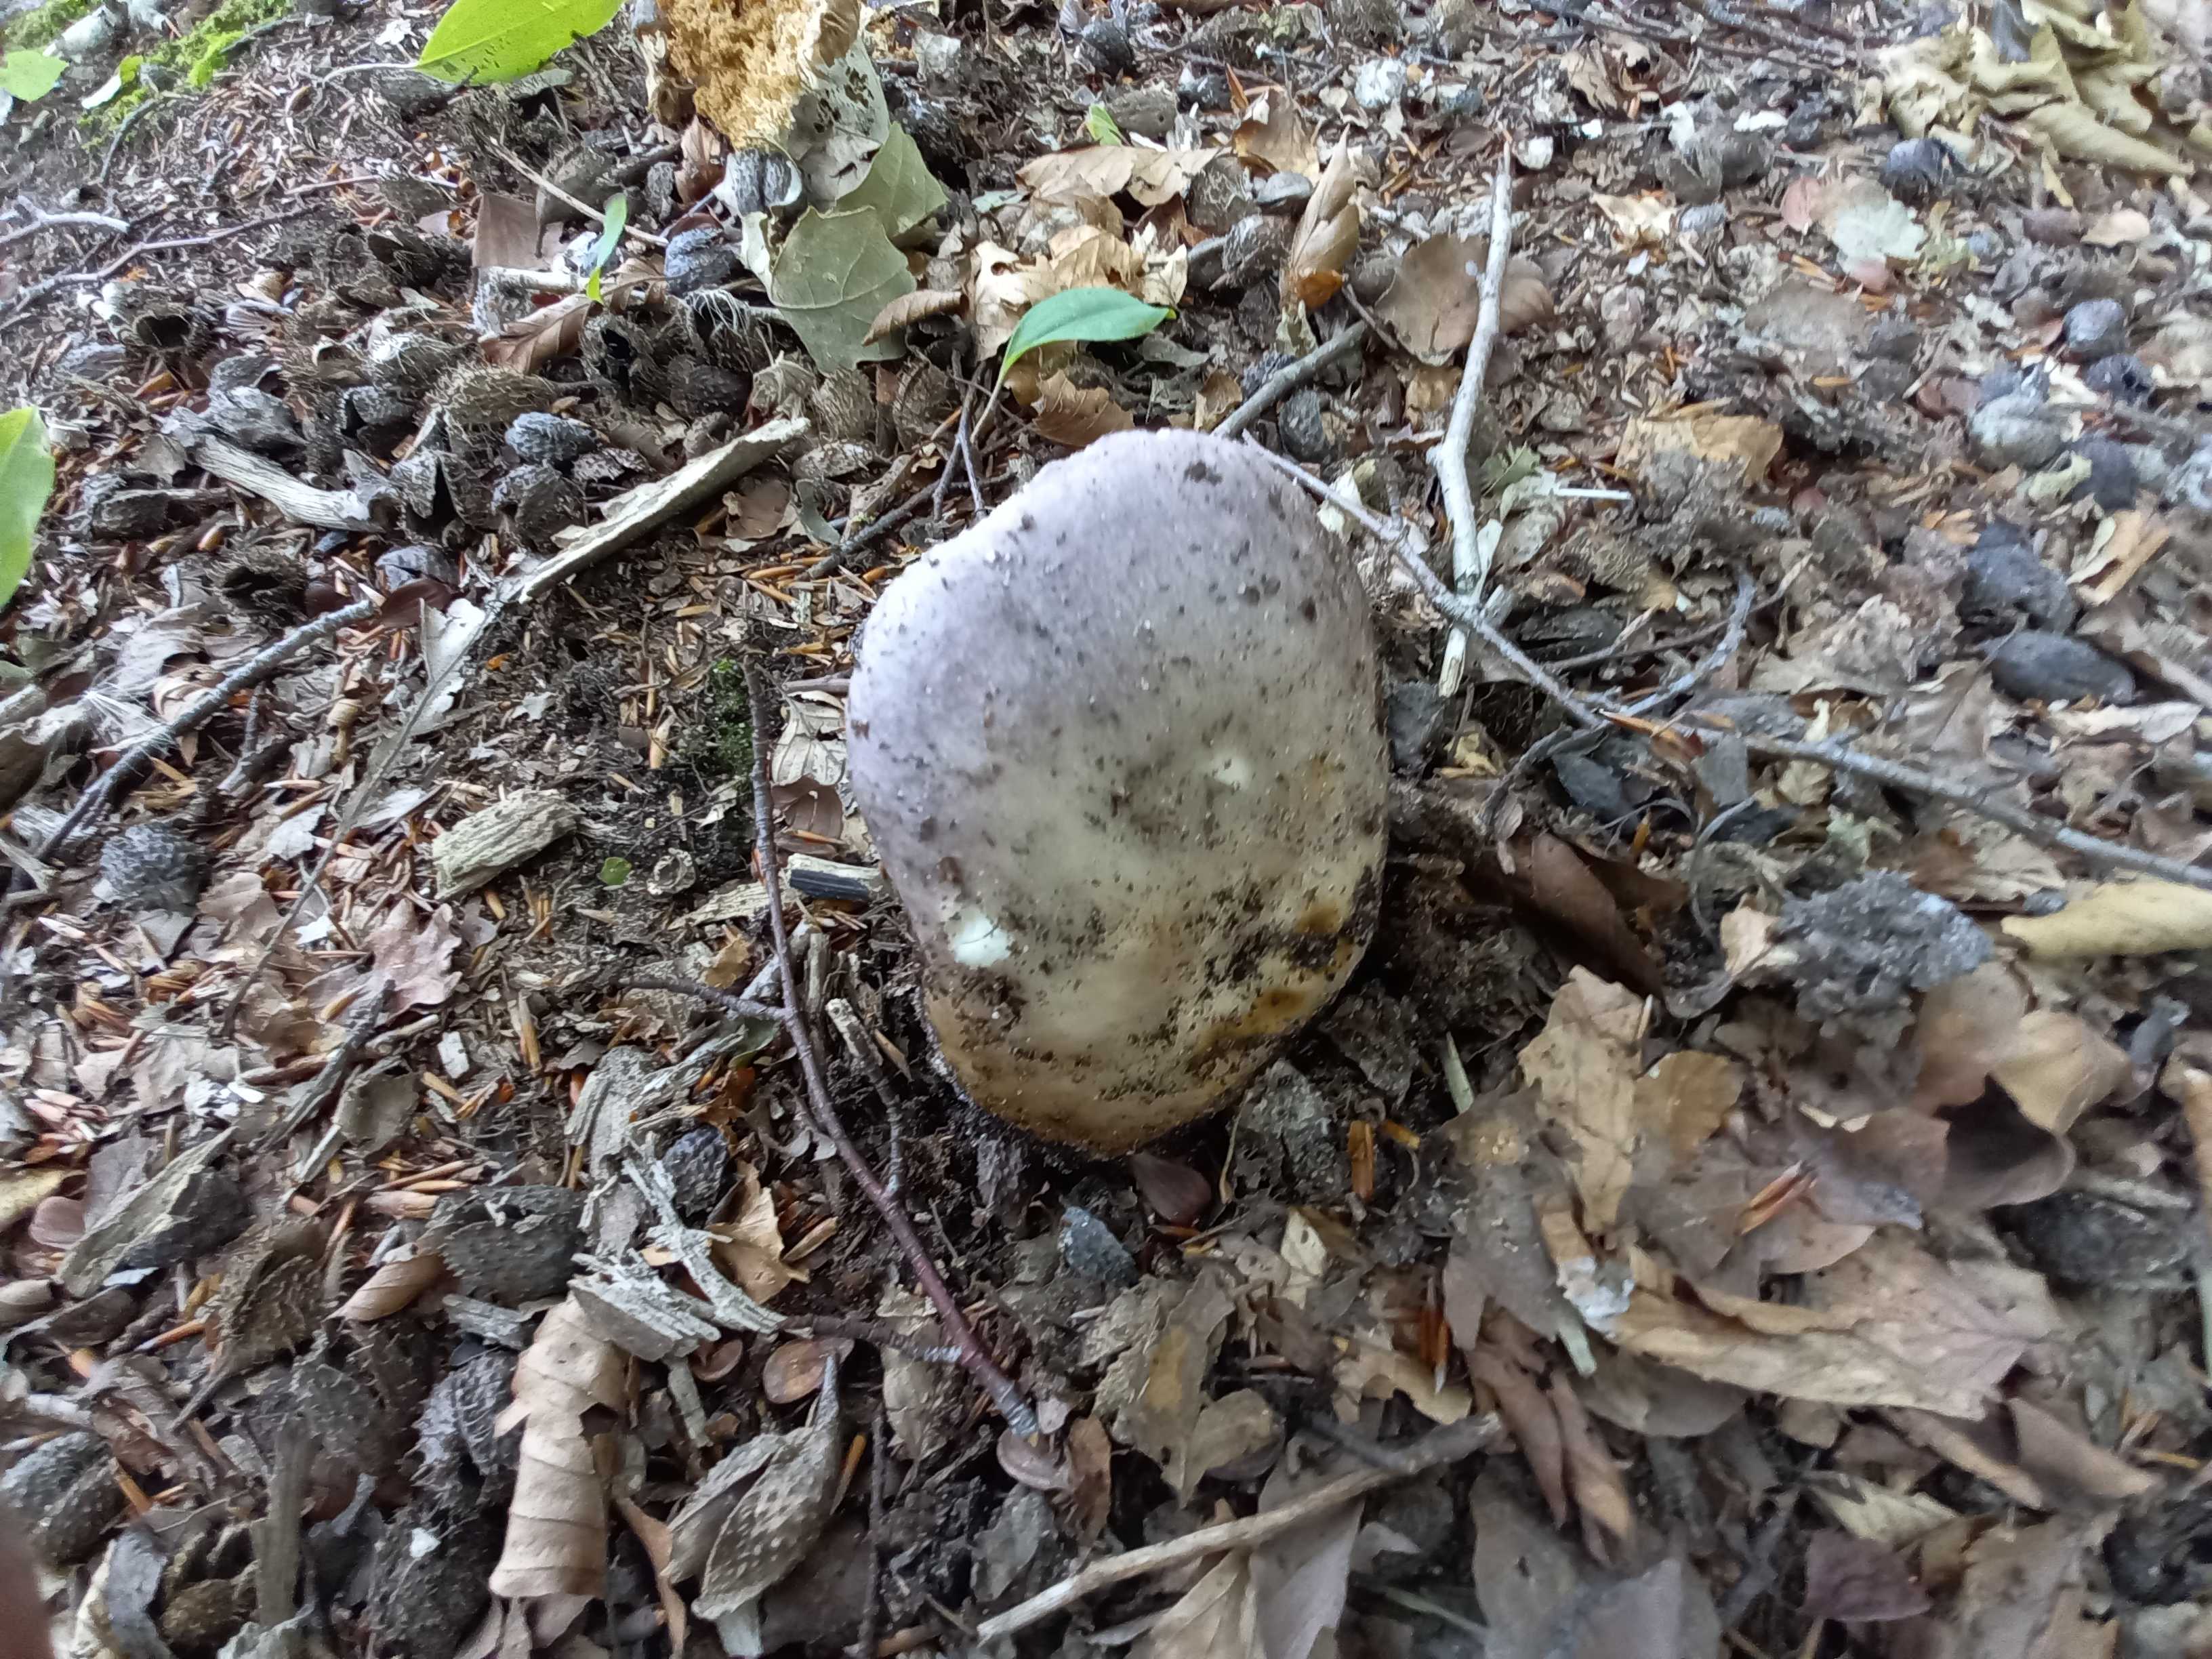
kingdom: Fungi
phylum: Basidiomycota
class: Agaricomycetes
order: Russulales
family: Russulaceae
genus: Russula
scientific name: Russula cyanoxantha
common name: broget skørhat
